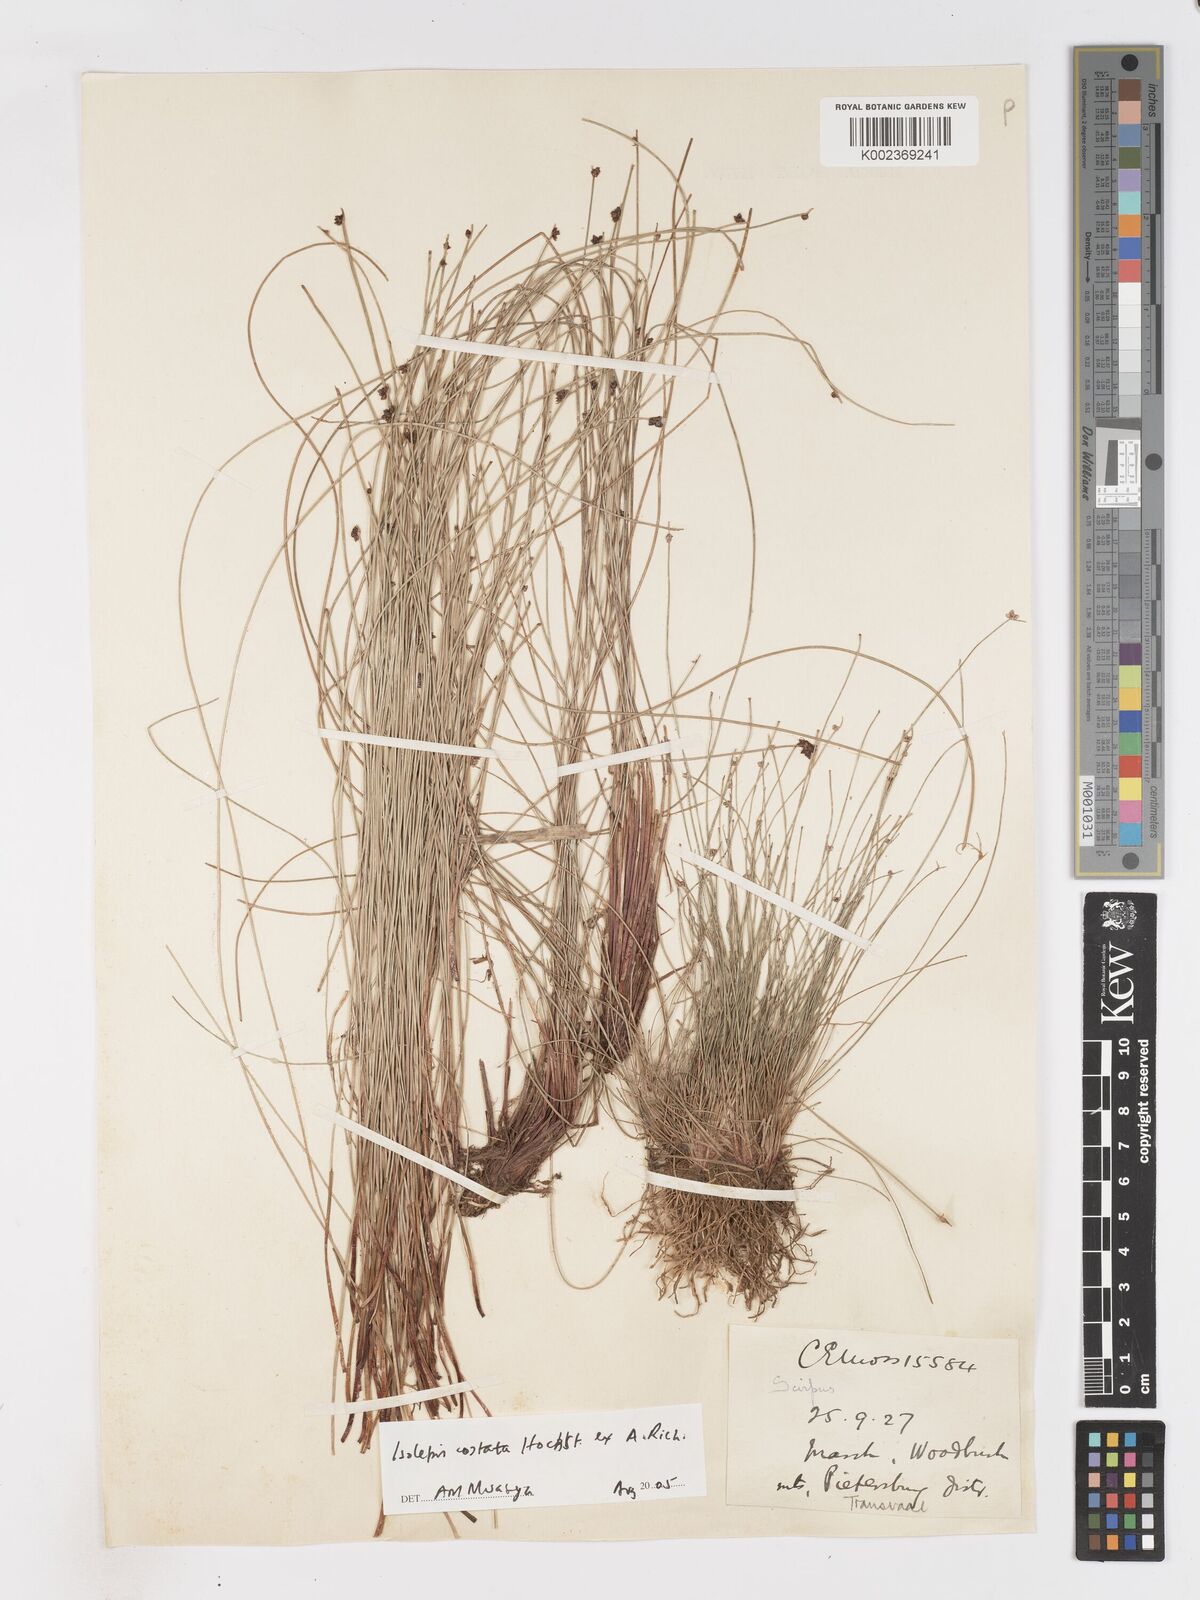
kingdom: Plantae
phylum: Tracheophyta
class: Liliopsida
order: Poales
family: Cyperaceae
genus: Isolepis
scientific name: Isolepis costata
